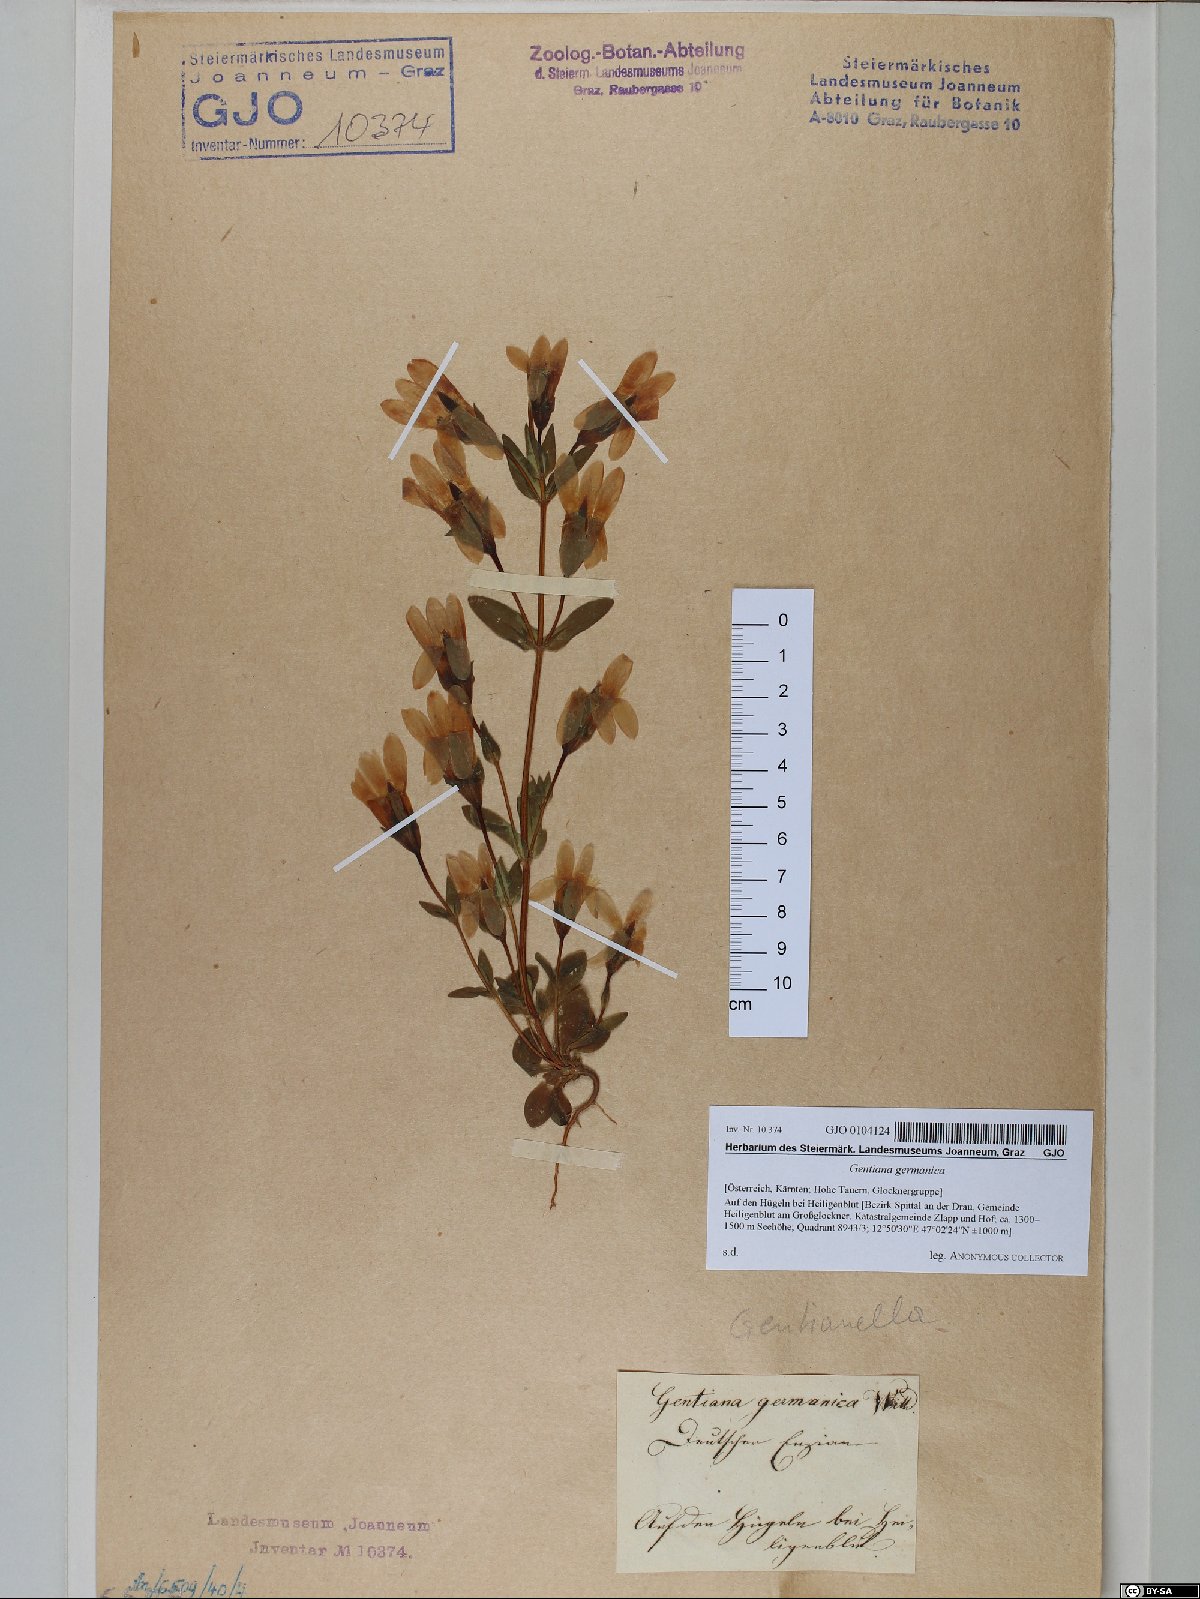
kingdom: Plantae
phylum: Tracheophyta
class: Magnoliopsida
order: Gentianales
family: Gentianaceae
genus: Gentianella
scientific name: Gentianella germanica
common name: Chiltern-gentian
